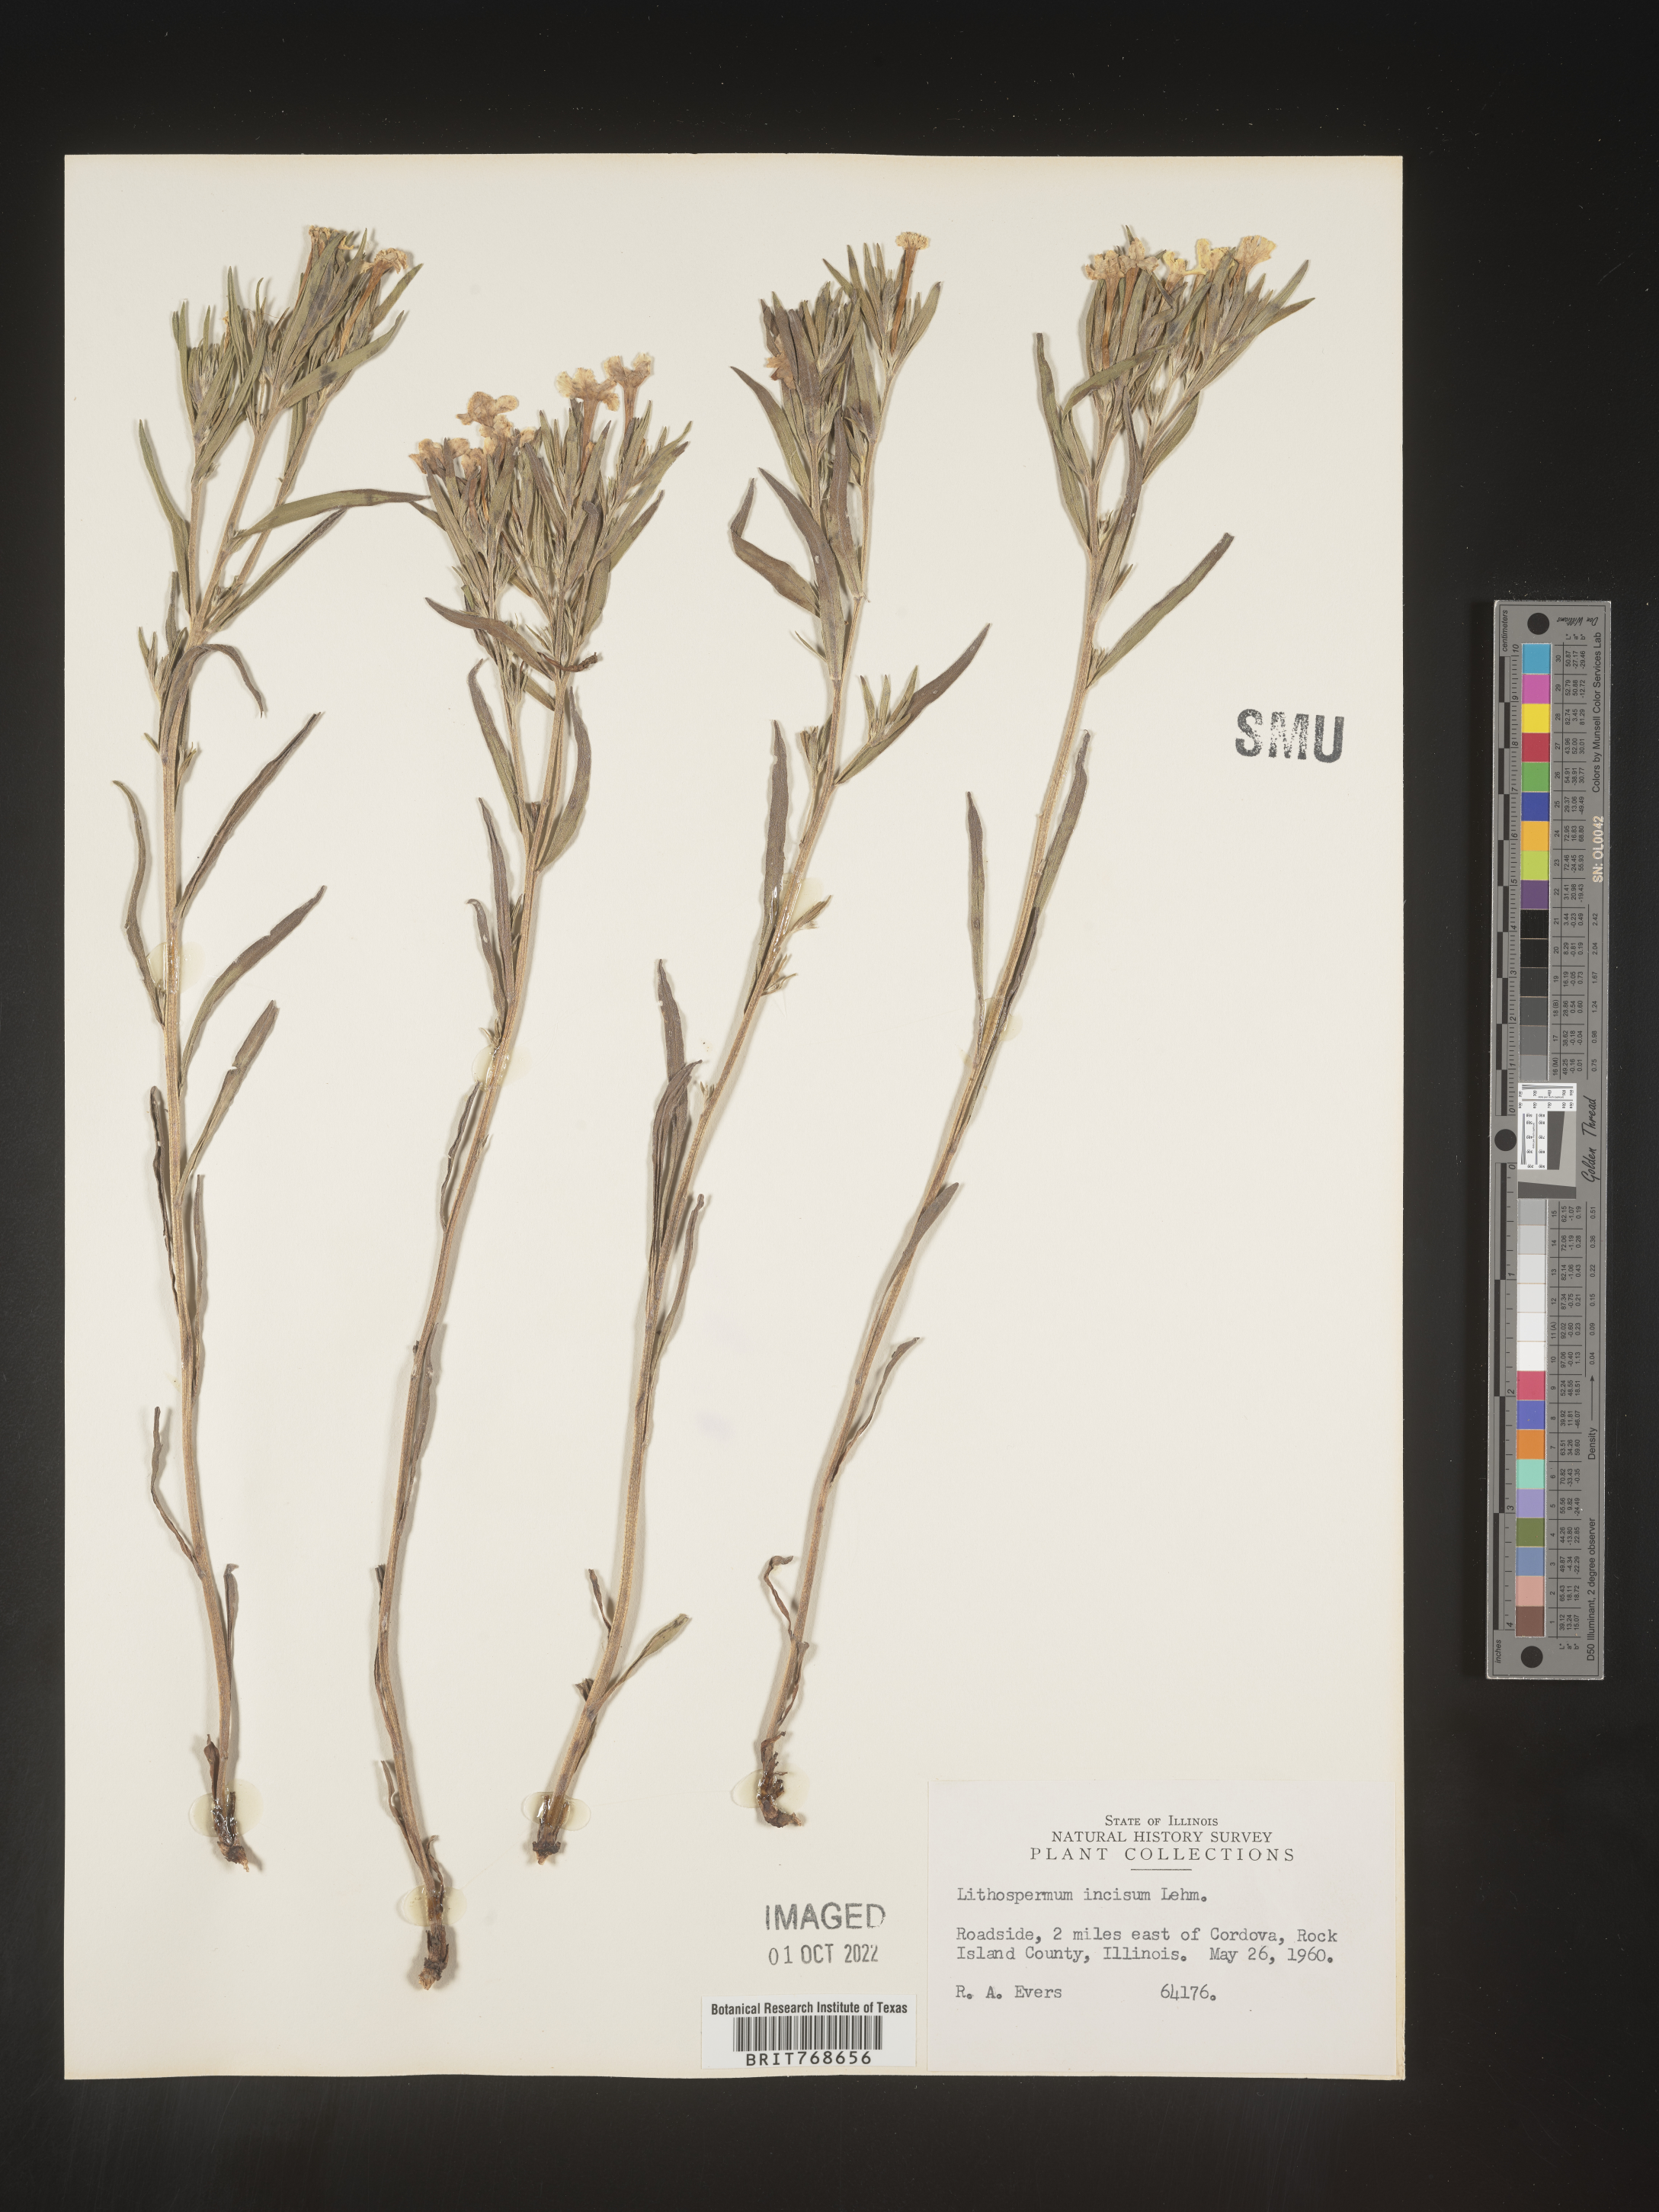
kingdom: Plantae
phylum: Tracheophyta
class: Magnoliopsida
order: Boraginales
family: Boraginaceae
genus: Lithospermum
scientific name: Lithospermum incisum
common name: Fringed gromwell
